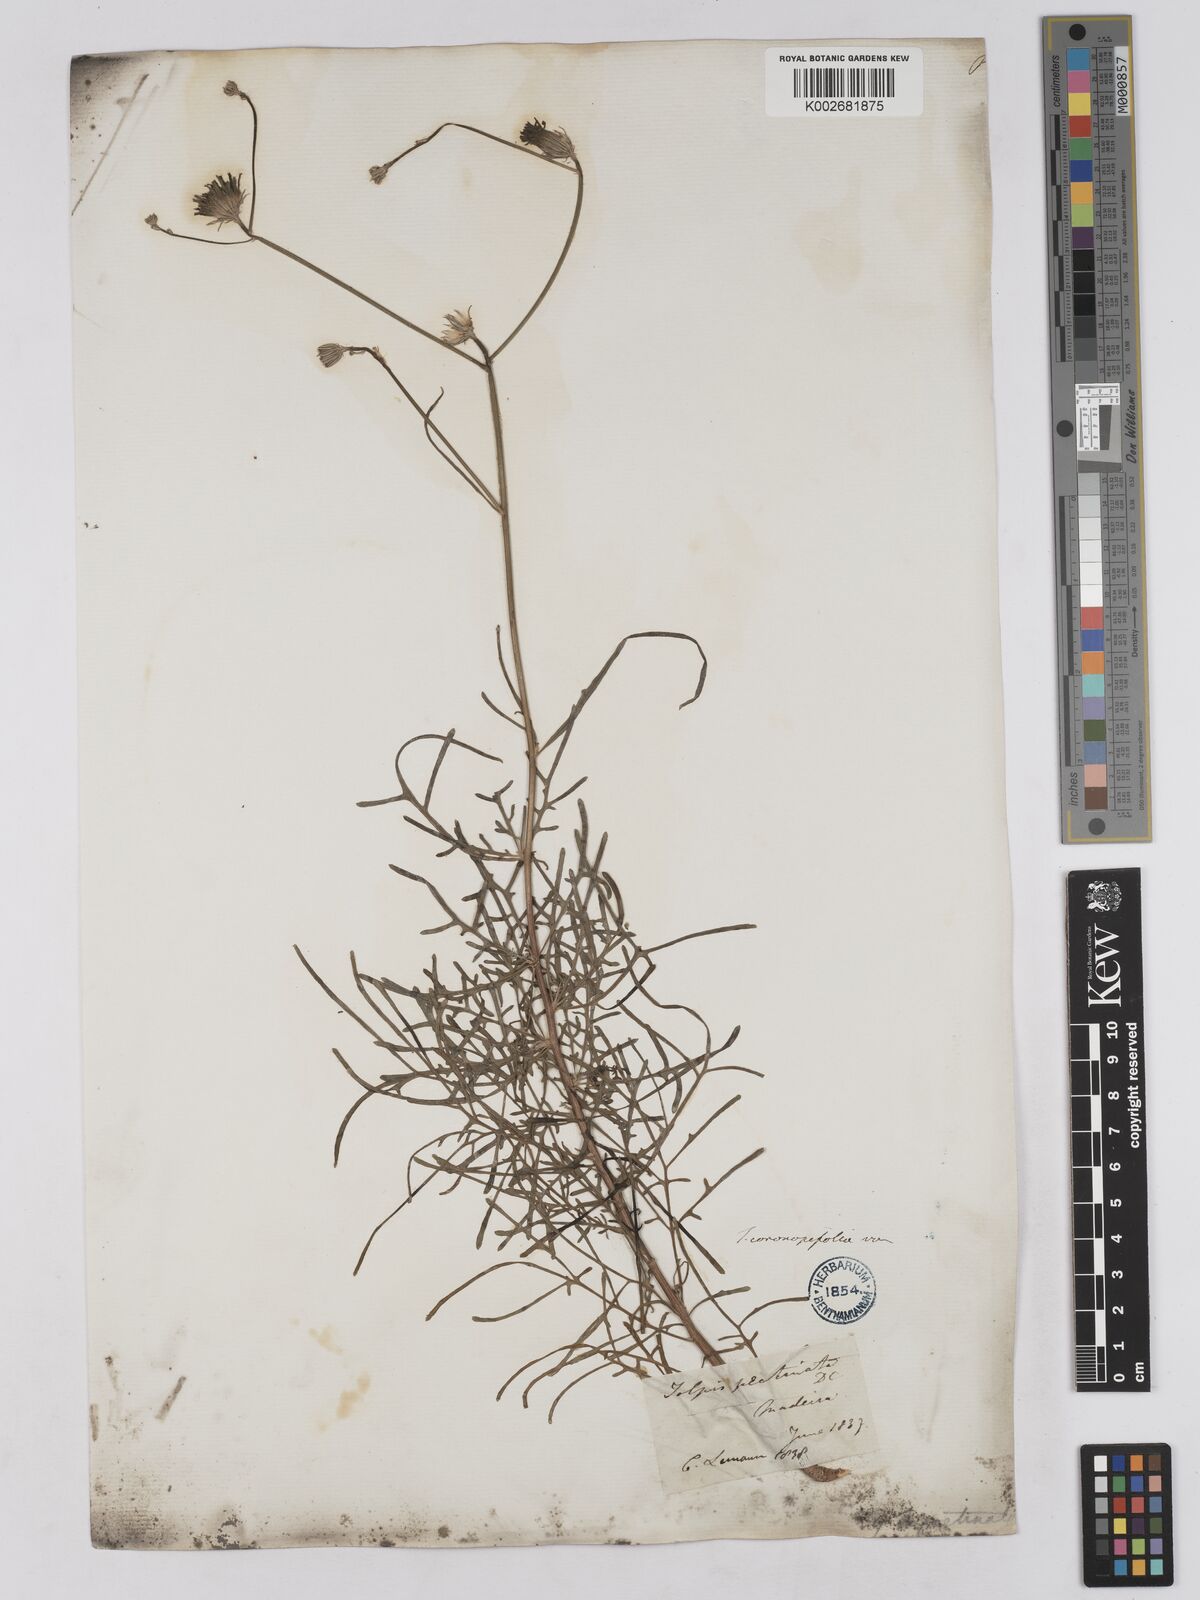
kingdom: Plantae
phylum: Tracheophyta
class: Magnoliopsida
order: Asterales
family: Asteraceae
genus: Tolpis
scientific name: Tolpis succulenta
